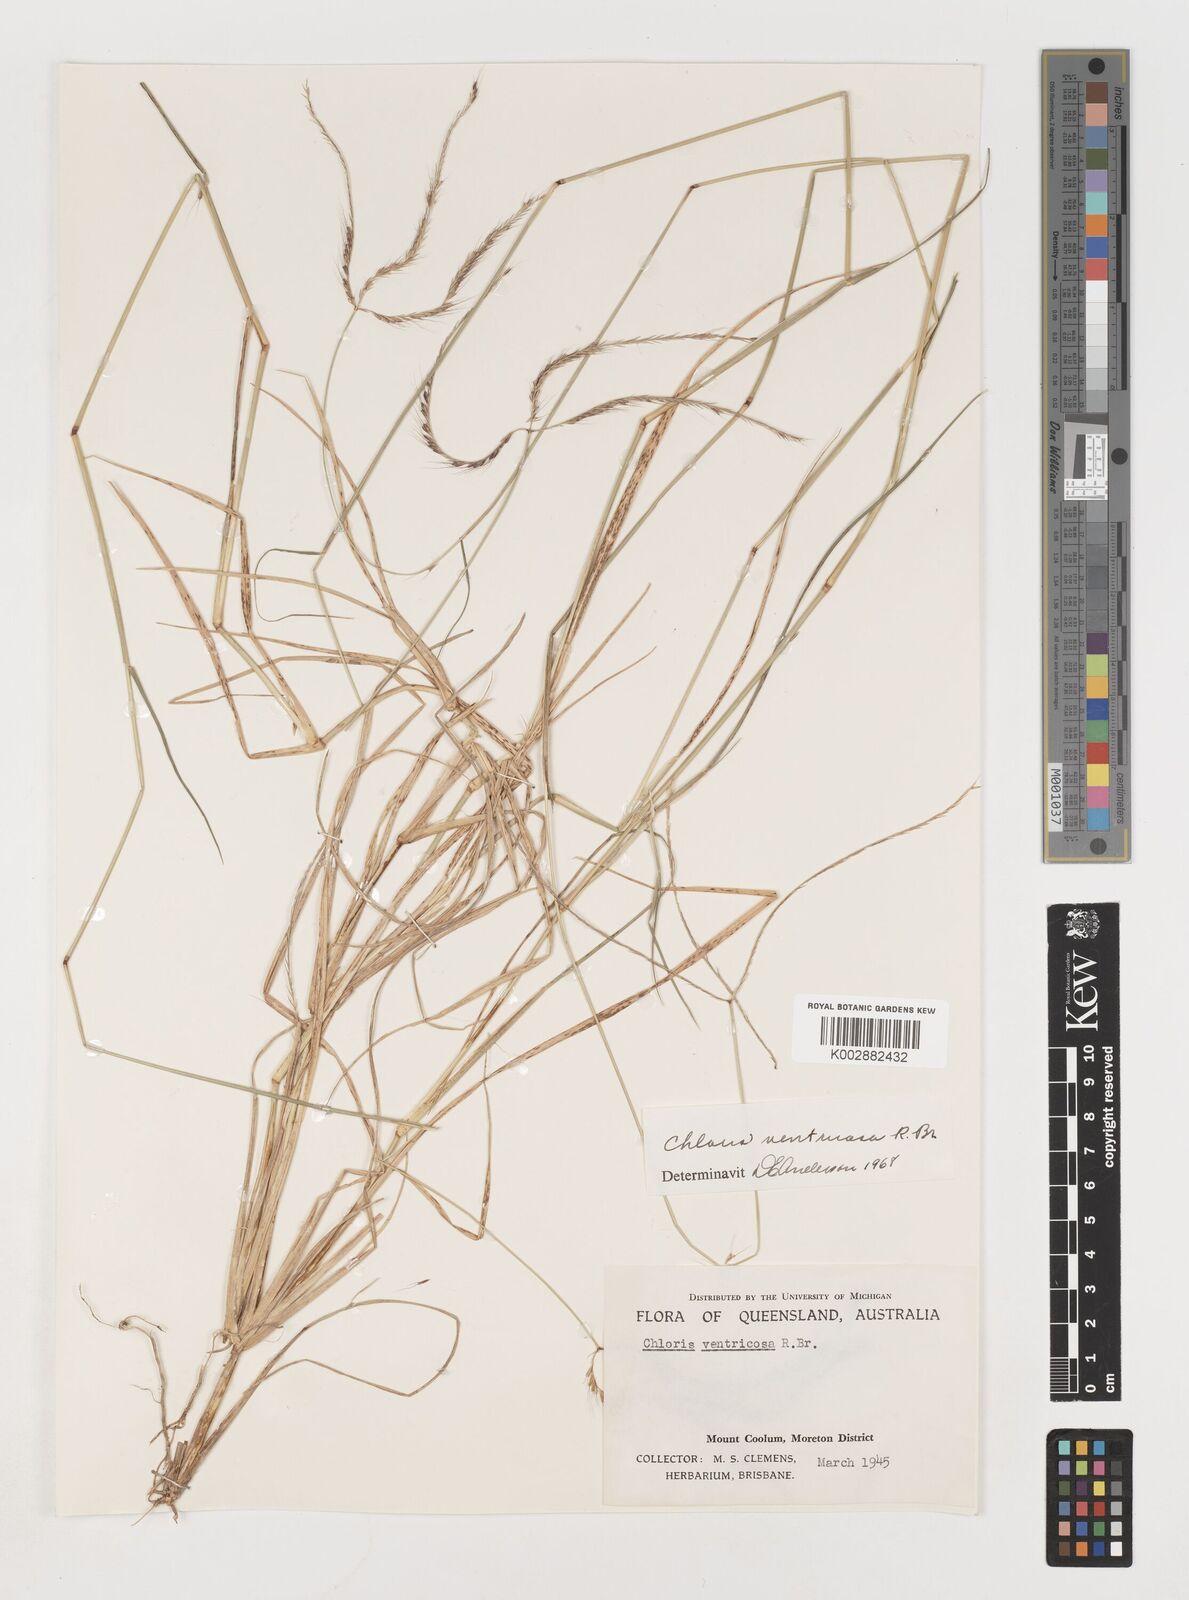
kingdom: Plantae
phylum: Tracheophyta
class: Liliopsida
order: Poales
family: Poaceae
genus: Chloris
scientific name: Chloris ventricosa
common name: Australian windmill grass
